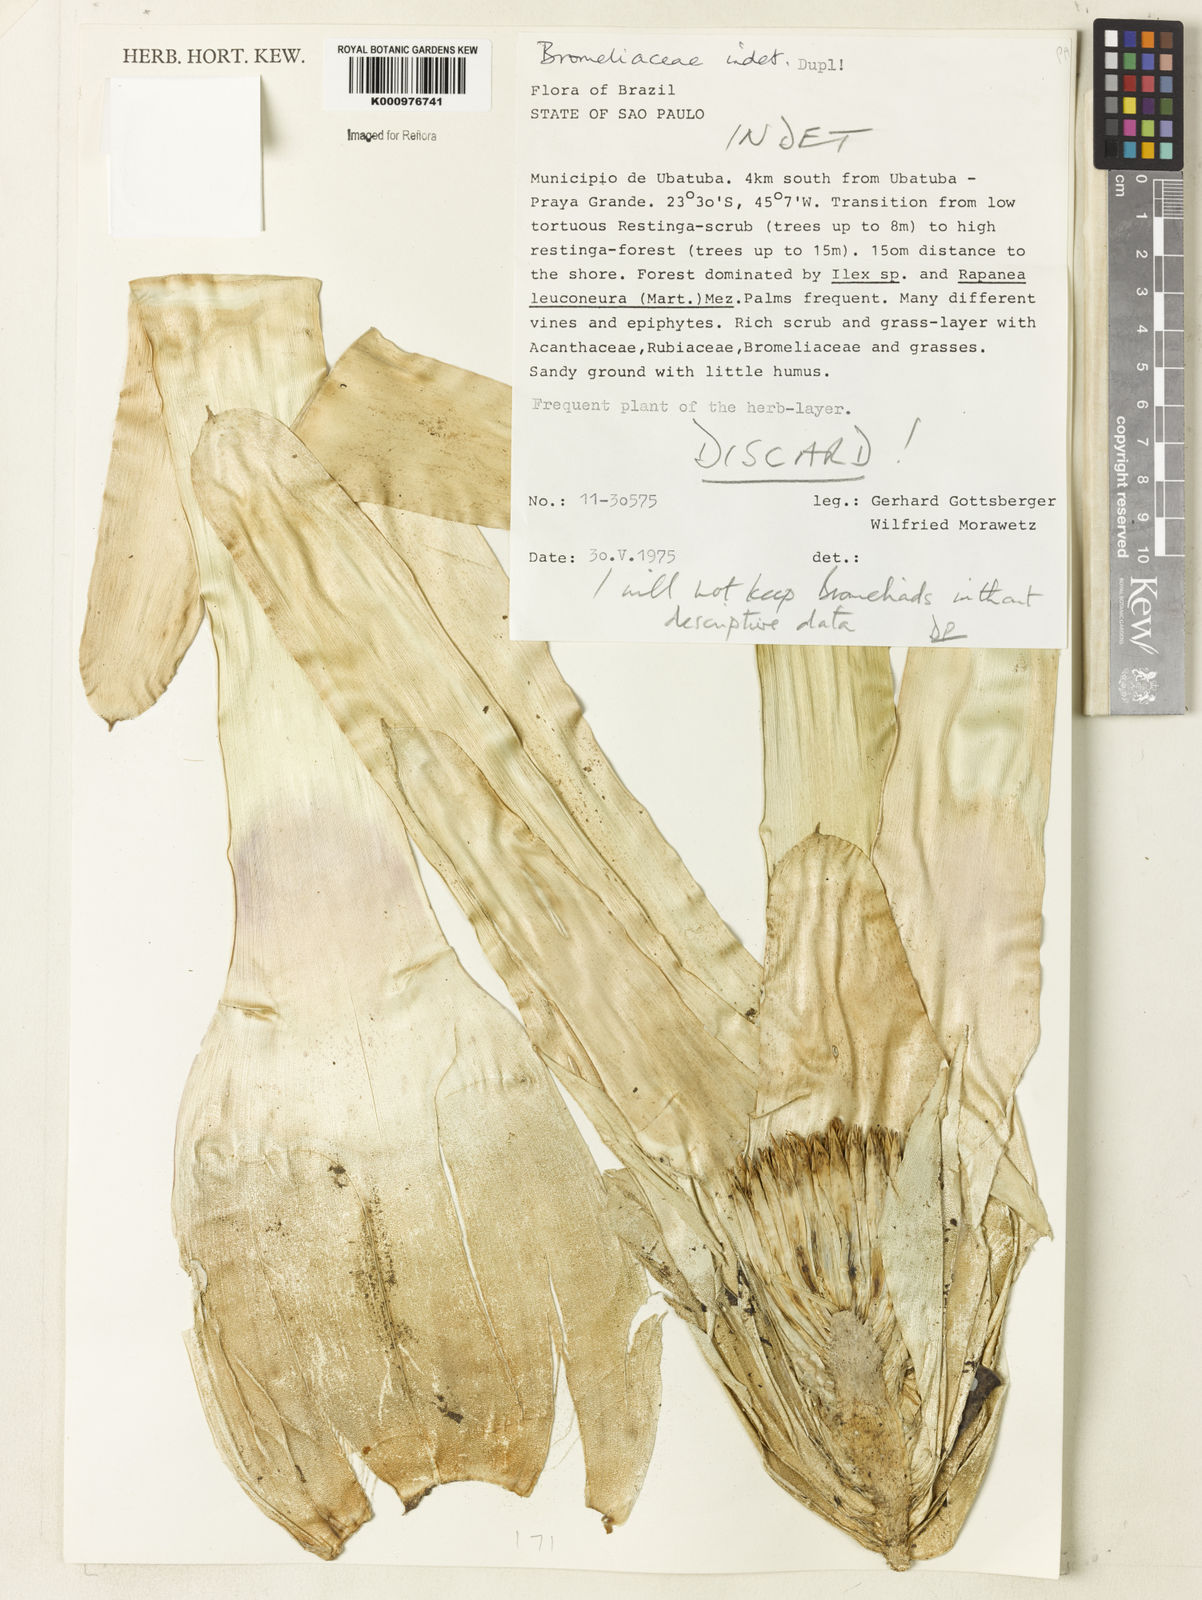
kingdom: Plantae
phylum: Tracheophyta
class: Liliopsida
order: Poales
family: Bromeliaceae
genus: Billbergia
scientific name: Billbergia
